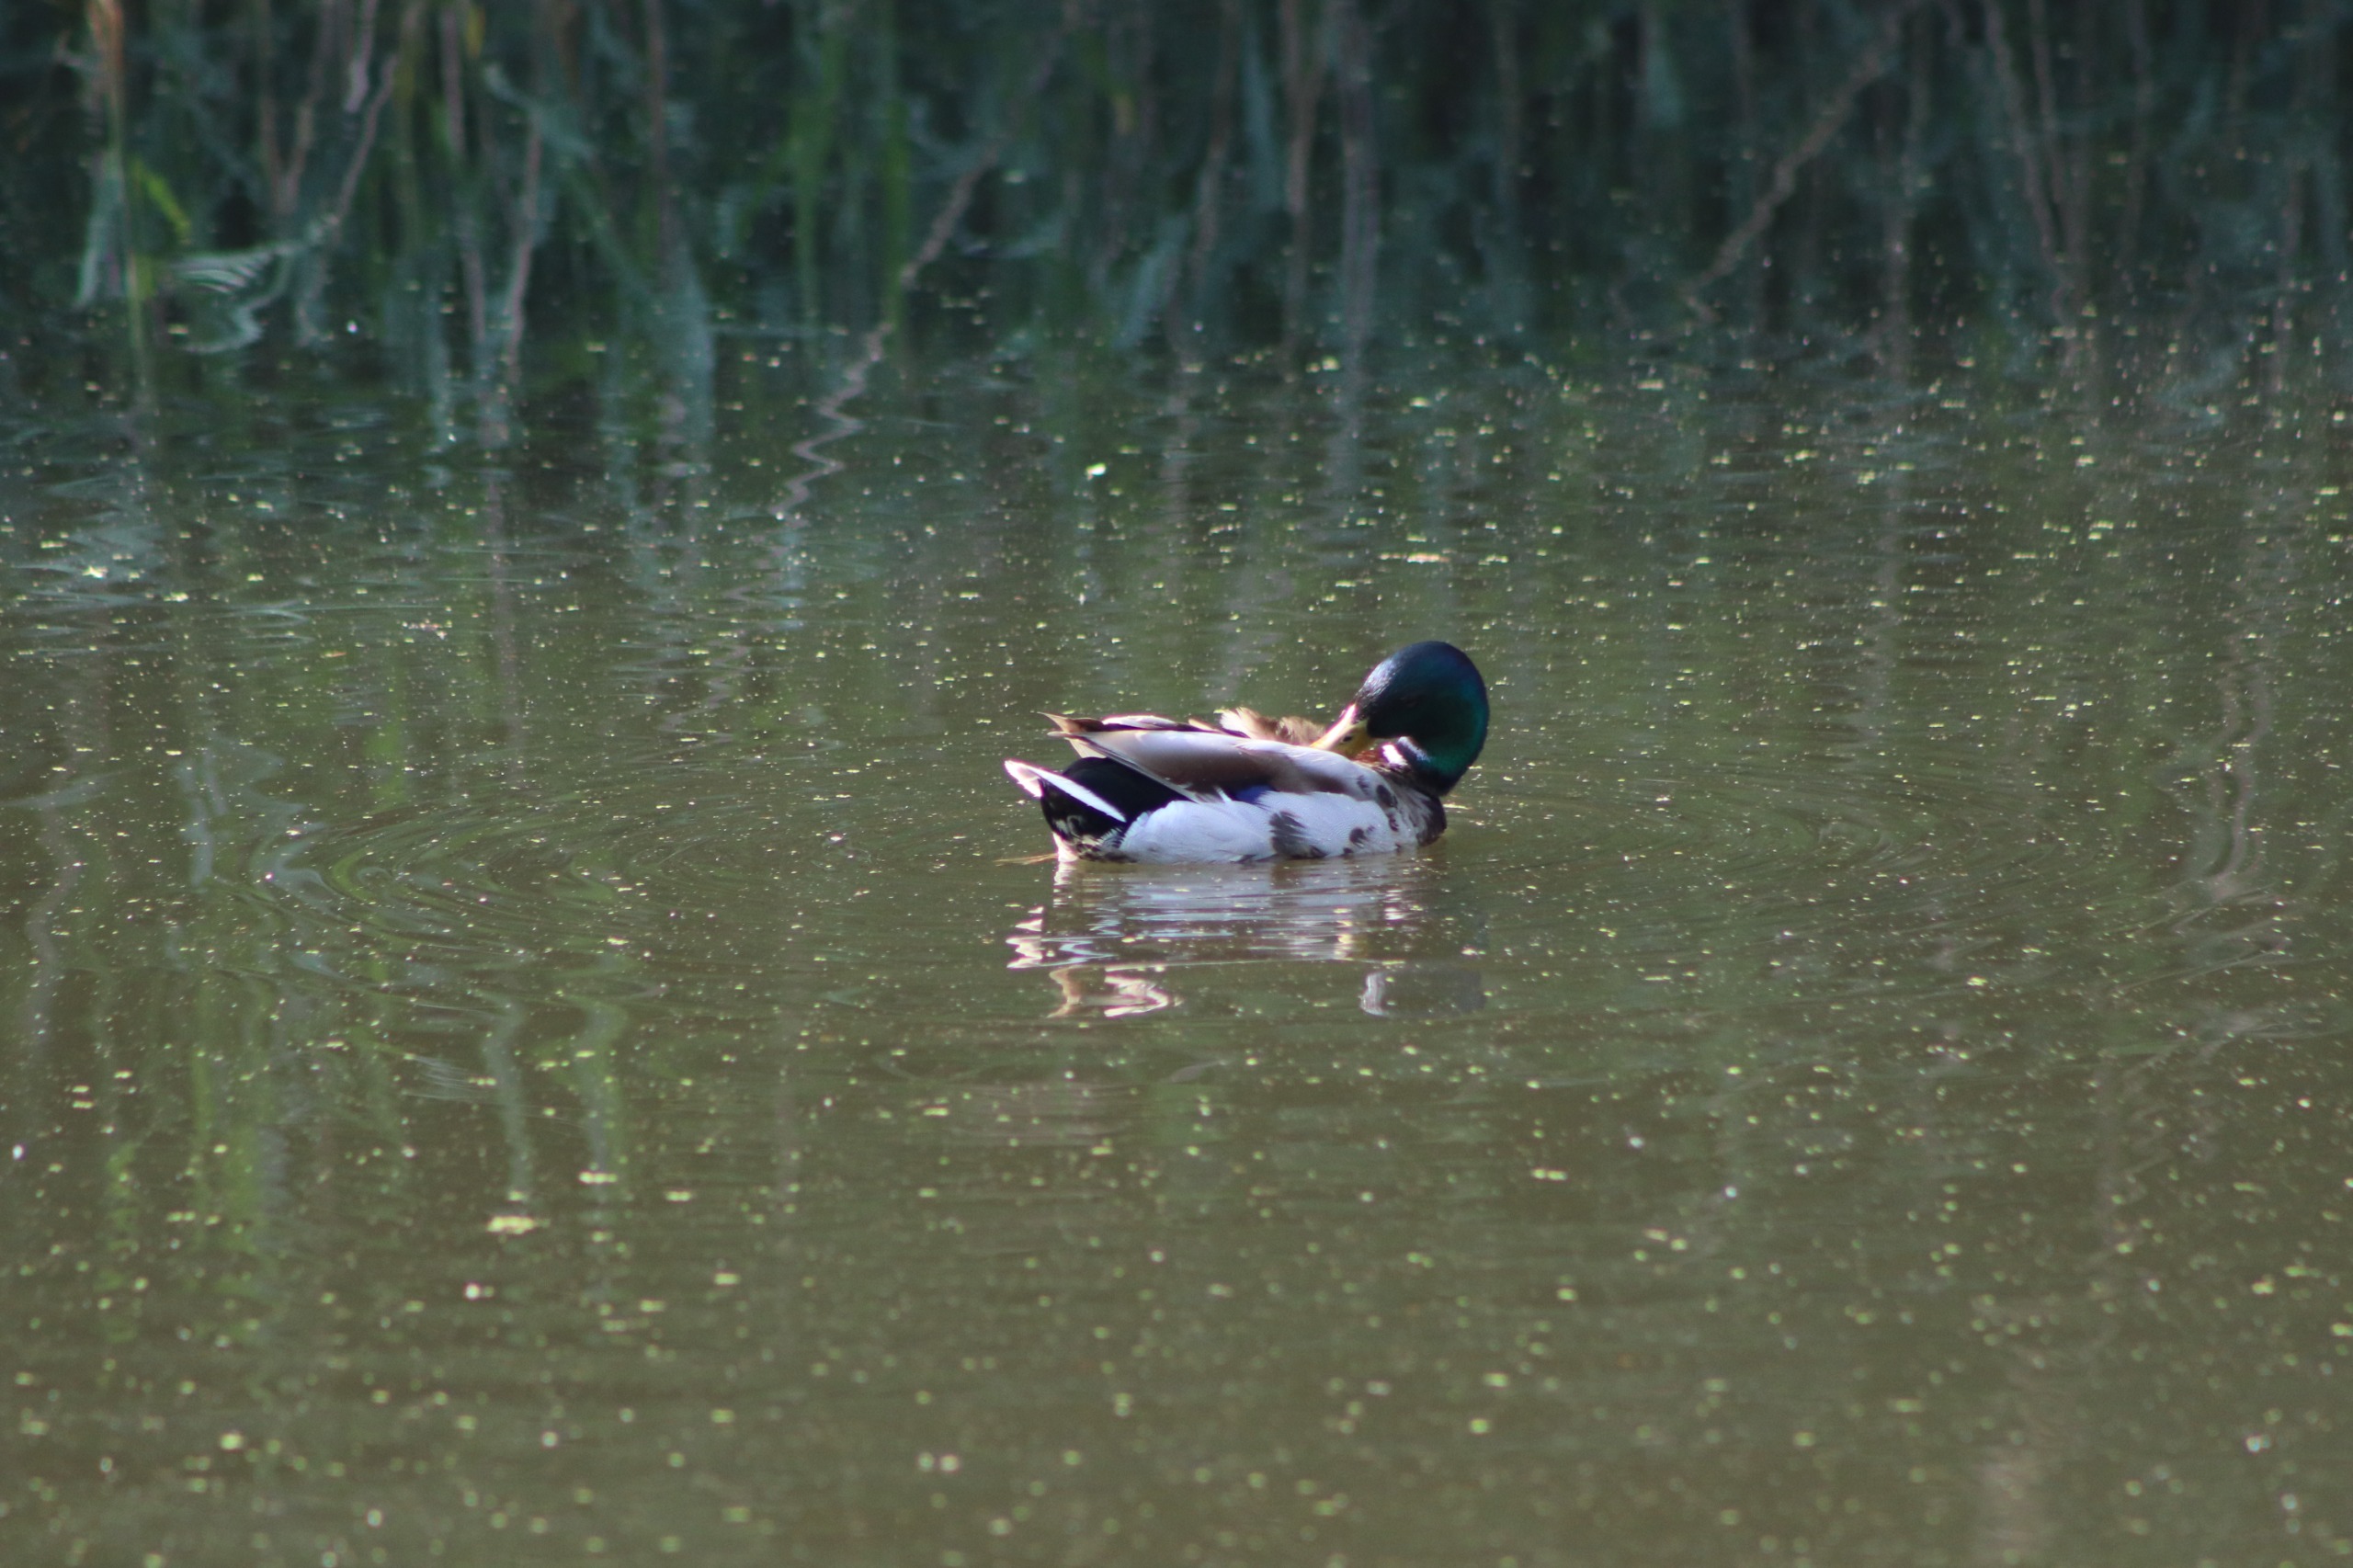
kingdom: Animalia
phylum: Chordata
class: Aves
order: Anseriformes
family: Anatidae
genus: Anas
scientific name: Anas platyrhynchos
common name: Gråand
